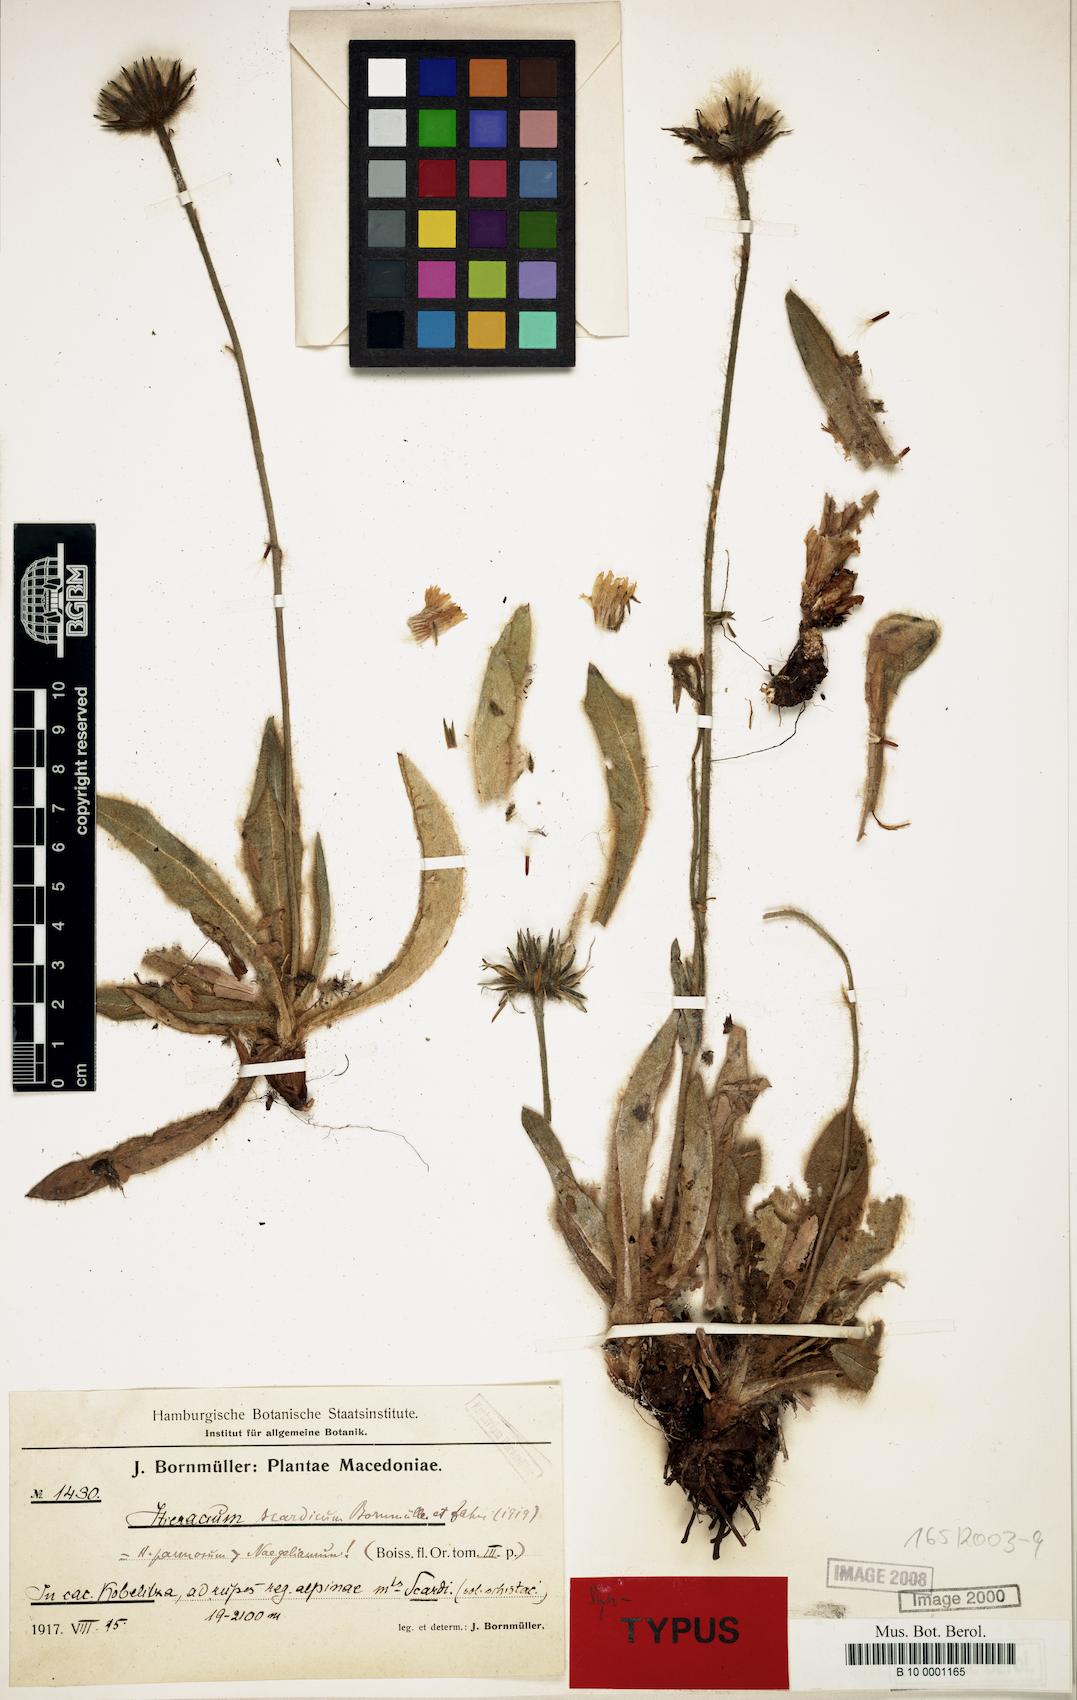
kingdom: Plantae
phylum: Tracheophyta
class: Magnoliopsida
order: Asterales
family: Asteraceae
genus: Hieracium
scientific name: Hieracium scardicum
